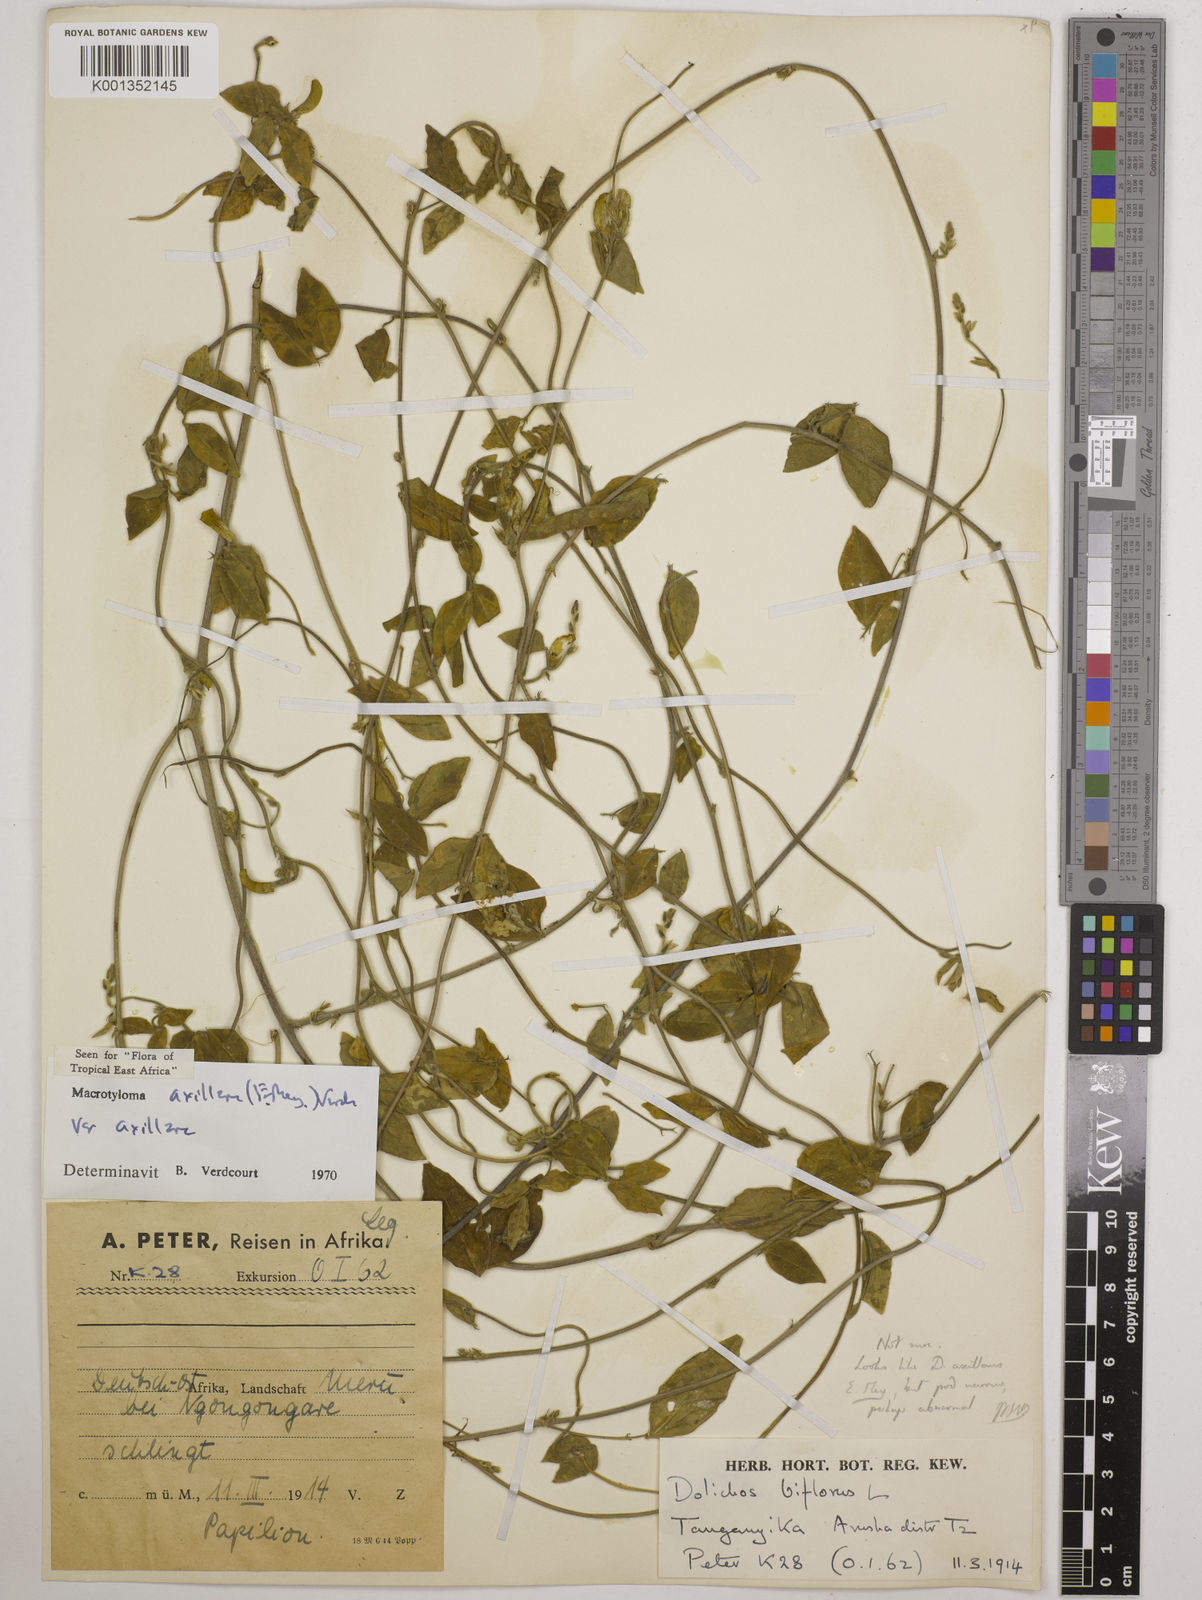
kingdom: Plantae
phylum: Tracheophyta
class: Magnoliopsida
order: Fabales
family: Fabaceae
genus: Macrotyloma
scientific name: Macrotyloma axillare
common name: Perennial horsegram
